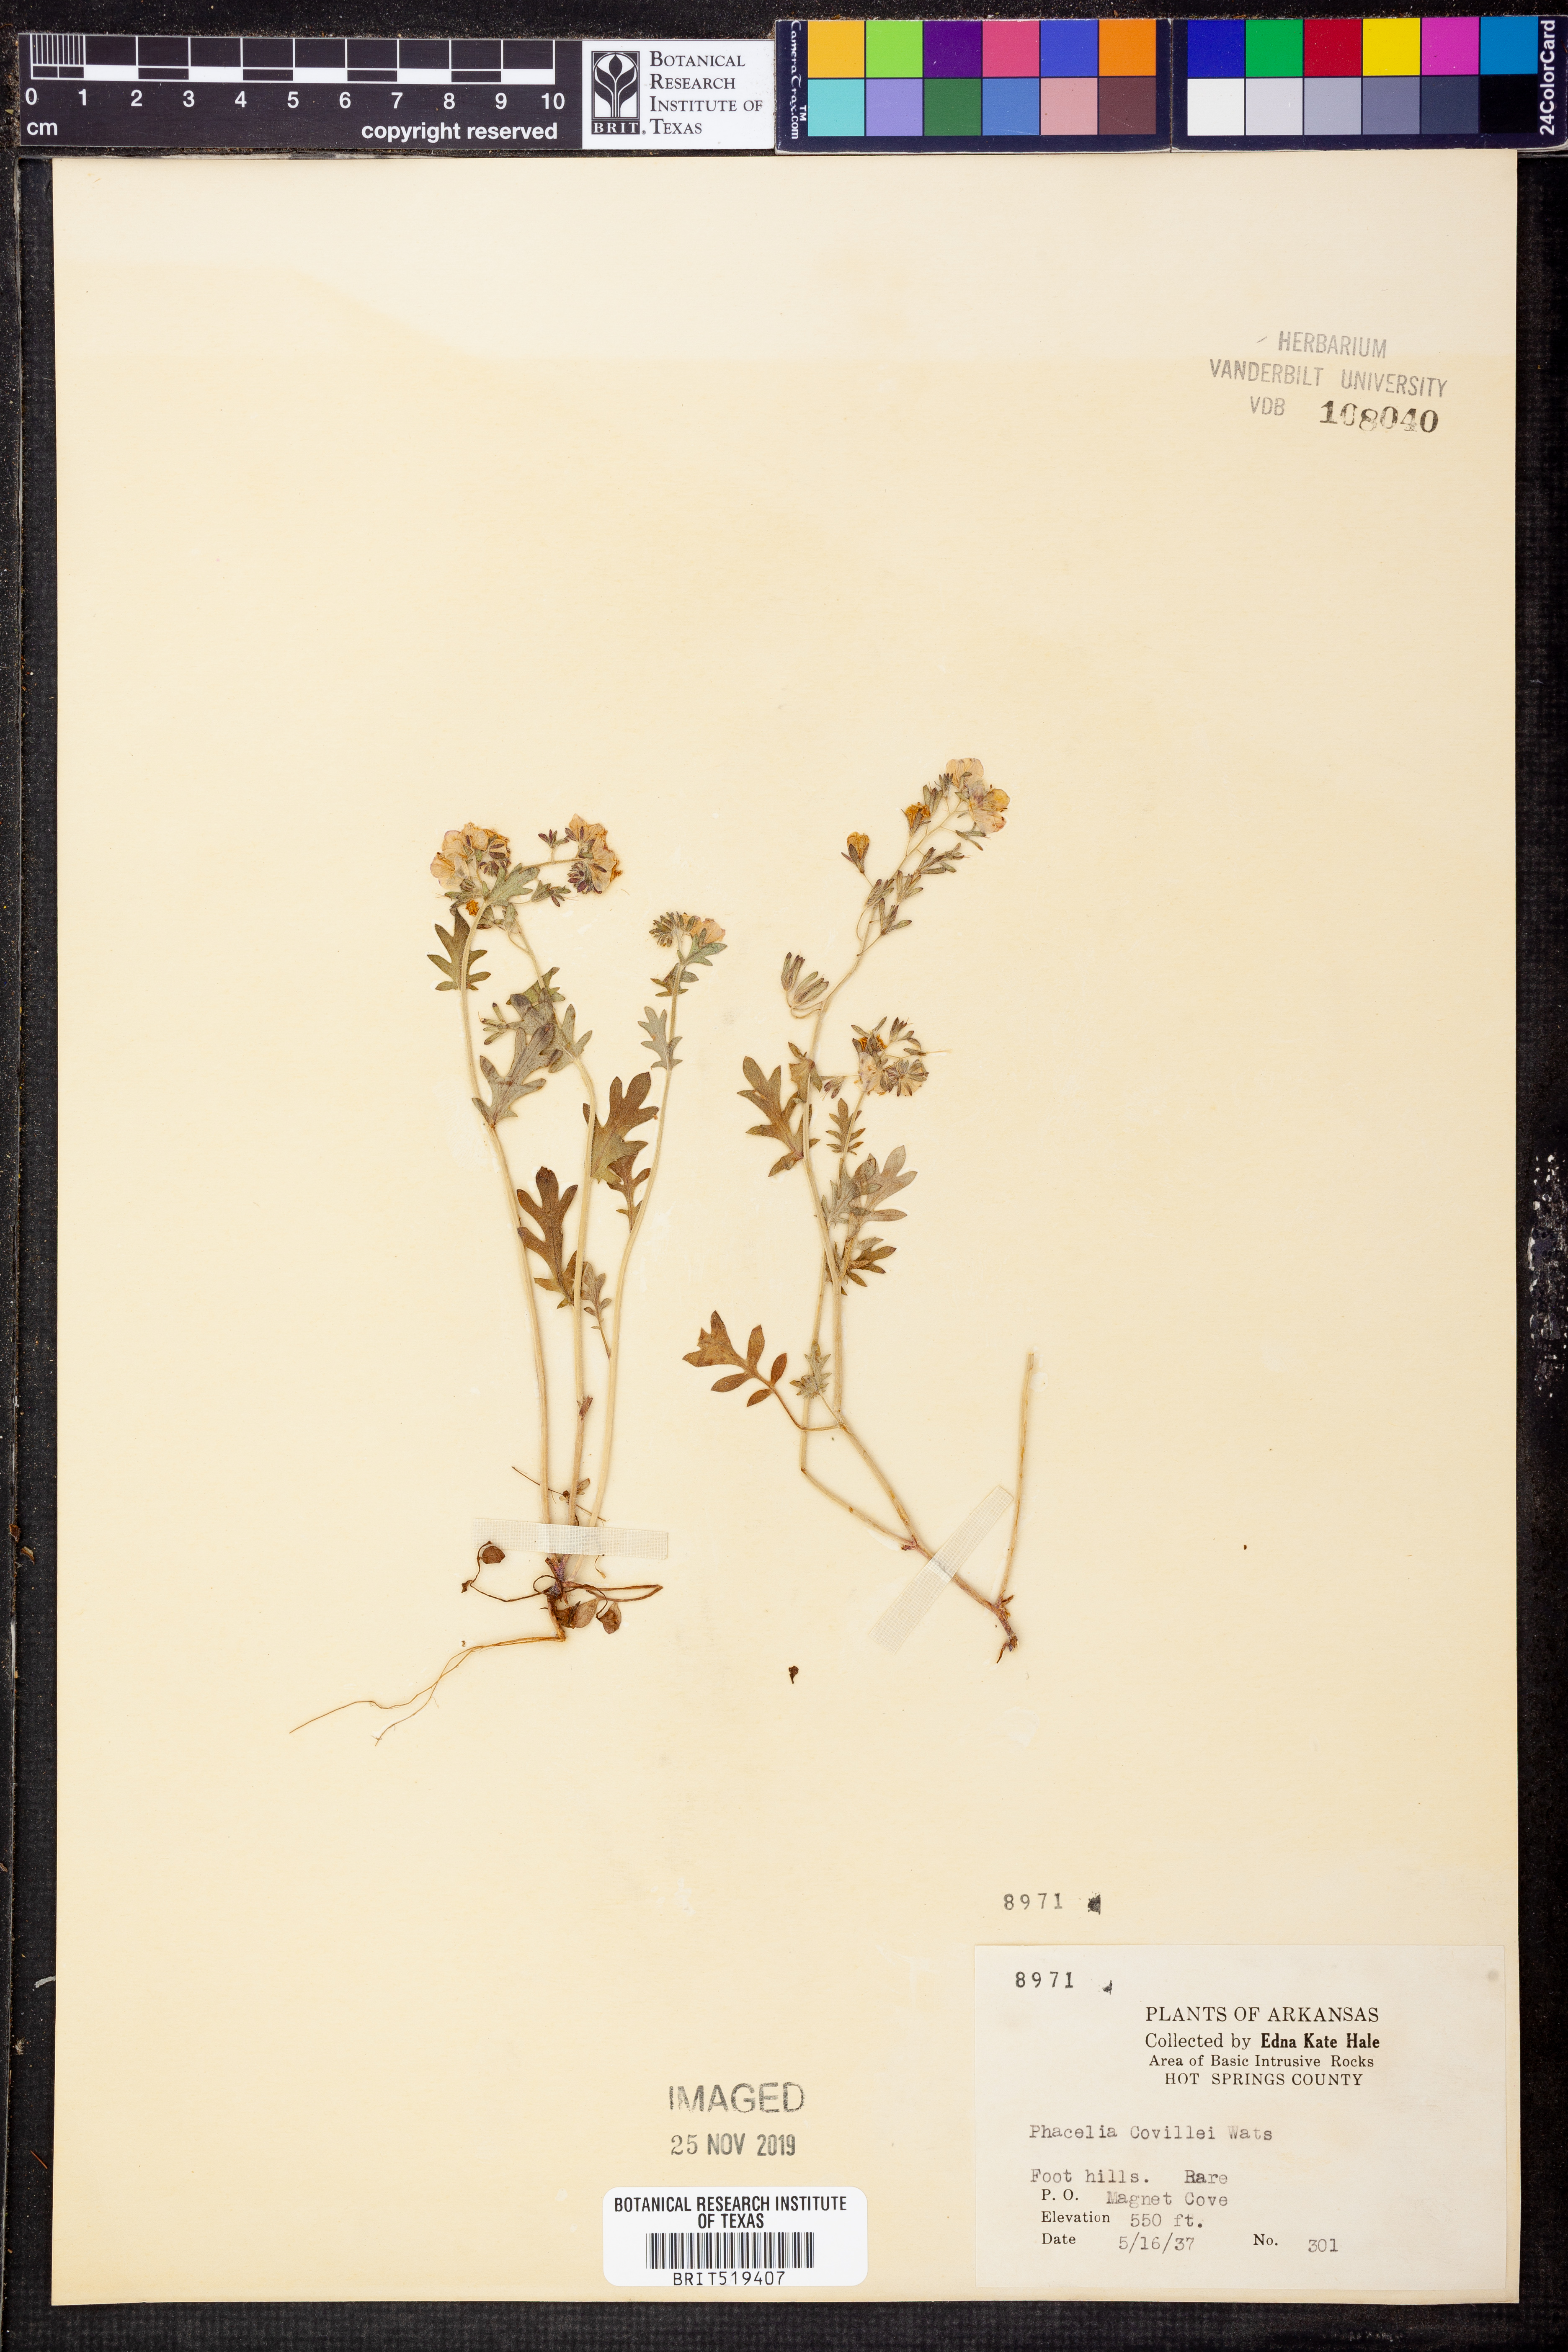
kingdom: Plantae
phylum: Tracheophyta
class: Magnoliopsida
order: Boraginales
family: Hydrophyllaceae
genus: Phacelia
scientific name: Phacelia covillei
